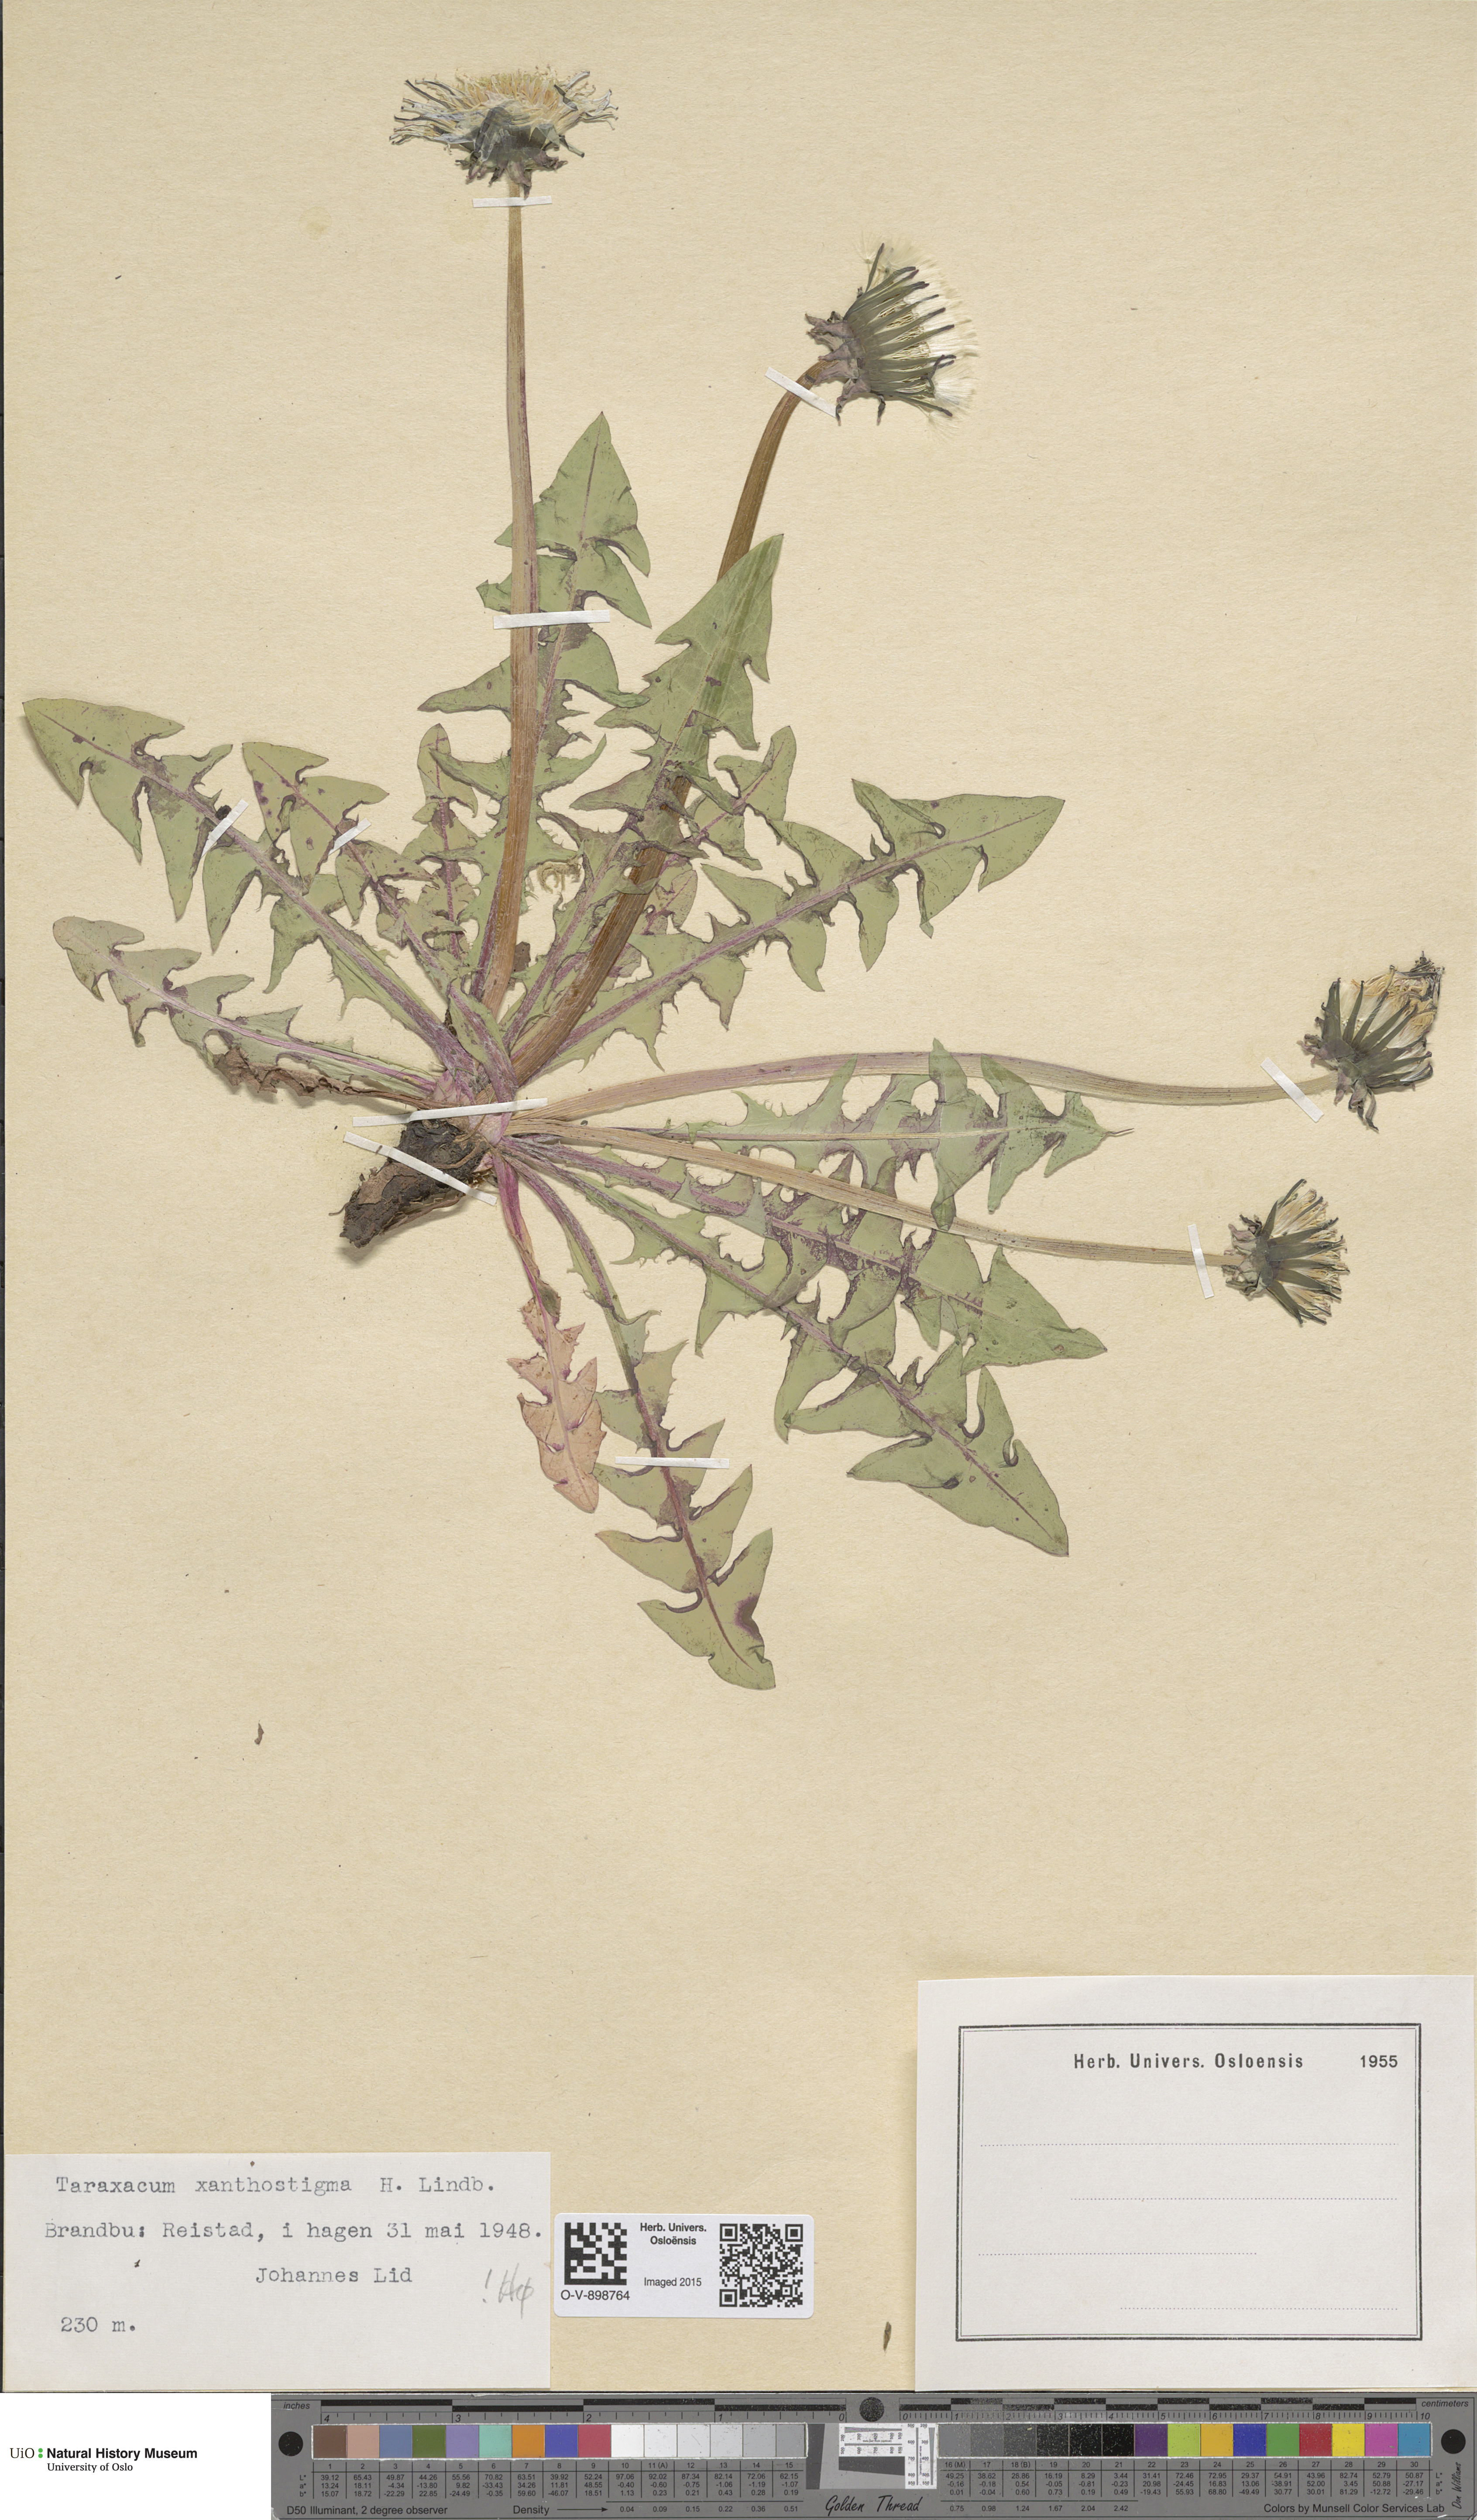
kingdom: Plantae
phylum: Tracheophyta
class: Magnoliopsida
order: Asterales
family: Asteraceae
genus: Taraxacum
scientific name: Taraxacum xanthostigma
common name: Ochre-styled dandelion
